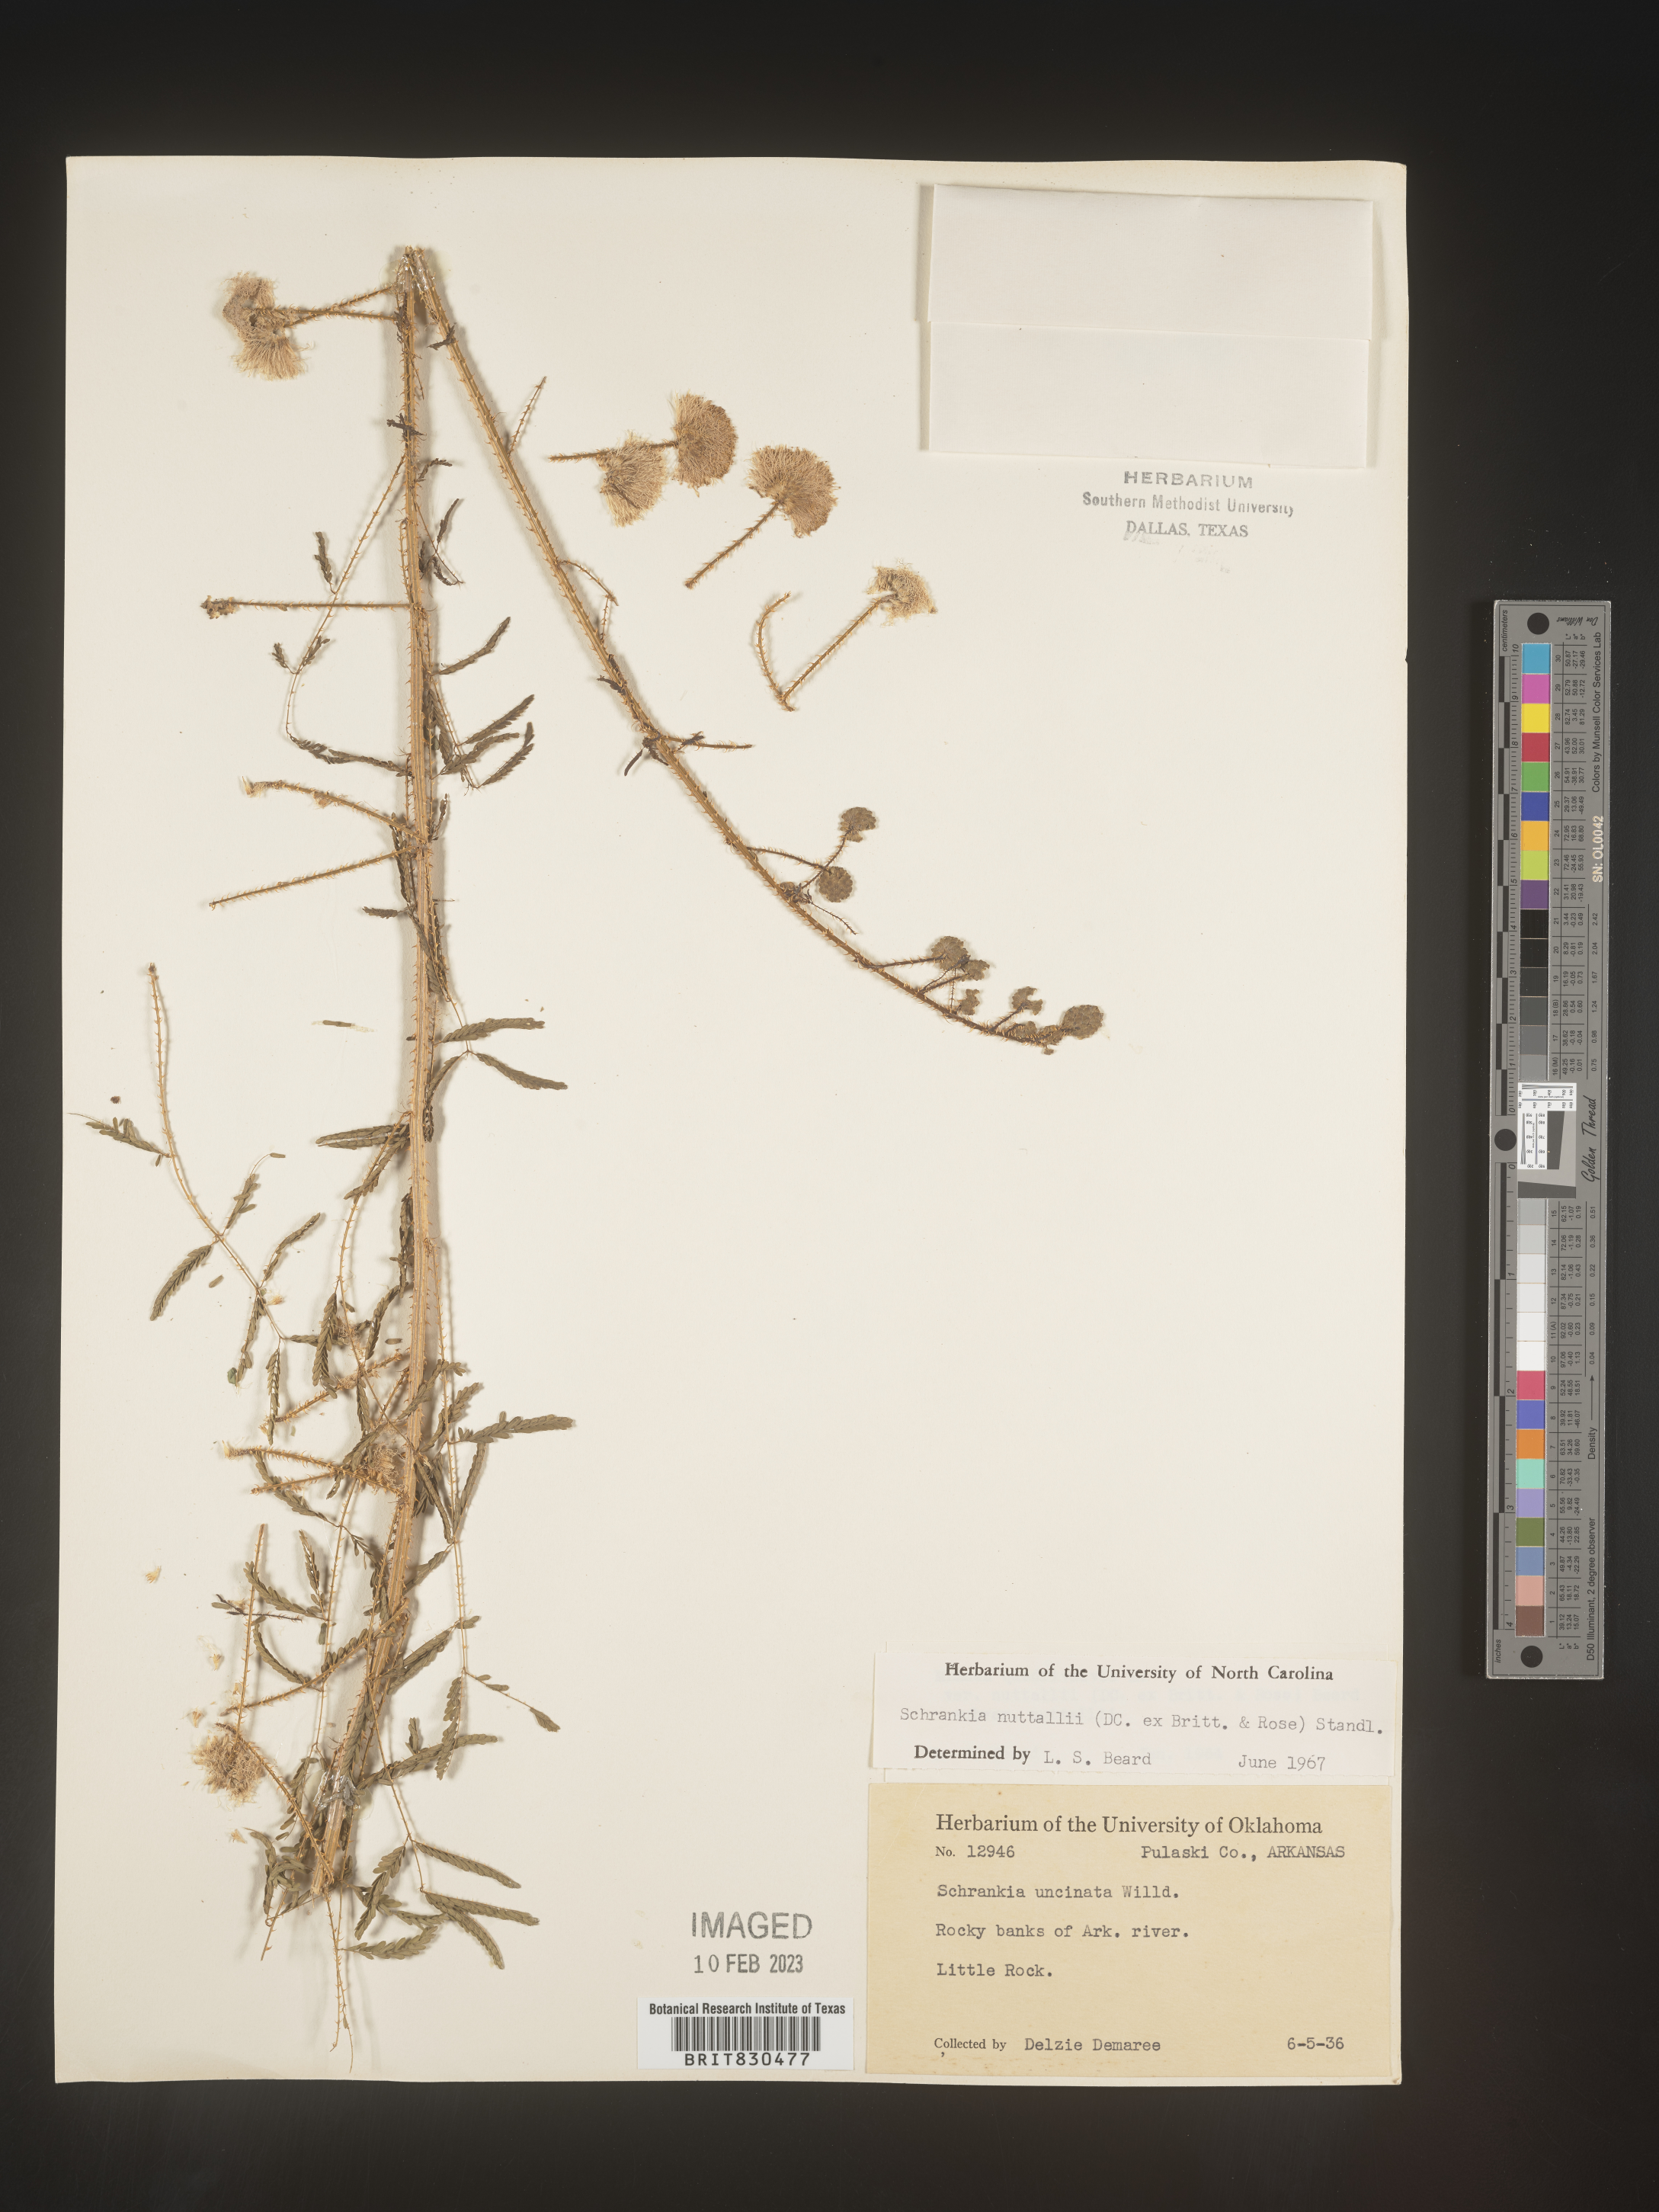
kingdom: Plantae
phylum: Tracheophyta
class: Magnoliopsida
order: Fabales
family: Fabaceae
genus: Mimosa
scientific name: Mimosa quadrivalvis
